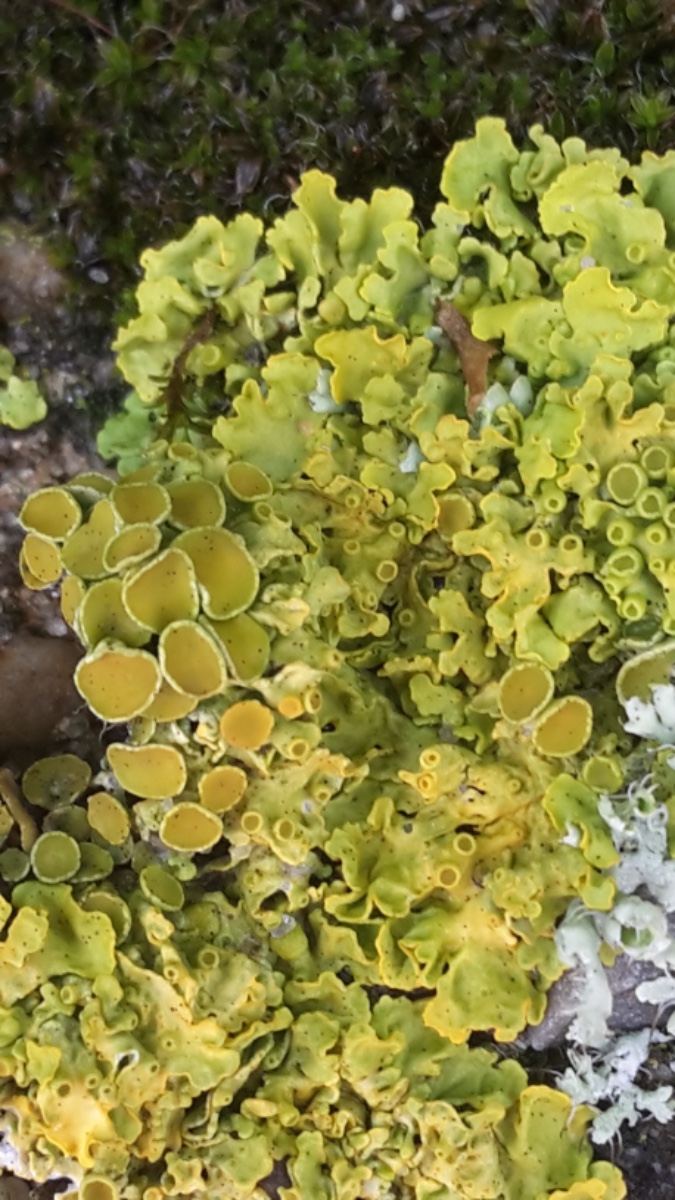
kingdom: Fungi
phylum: Ascomycota
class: Lecanoromycetes
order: Teloschistales
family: Teloschistaceae
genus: Xanthoria
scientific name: Xanthoria parietina
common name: almindelig væggelav
